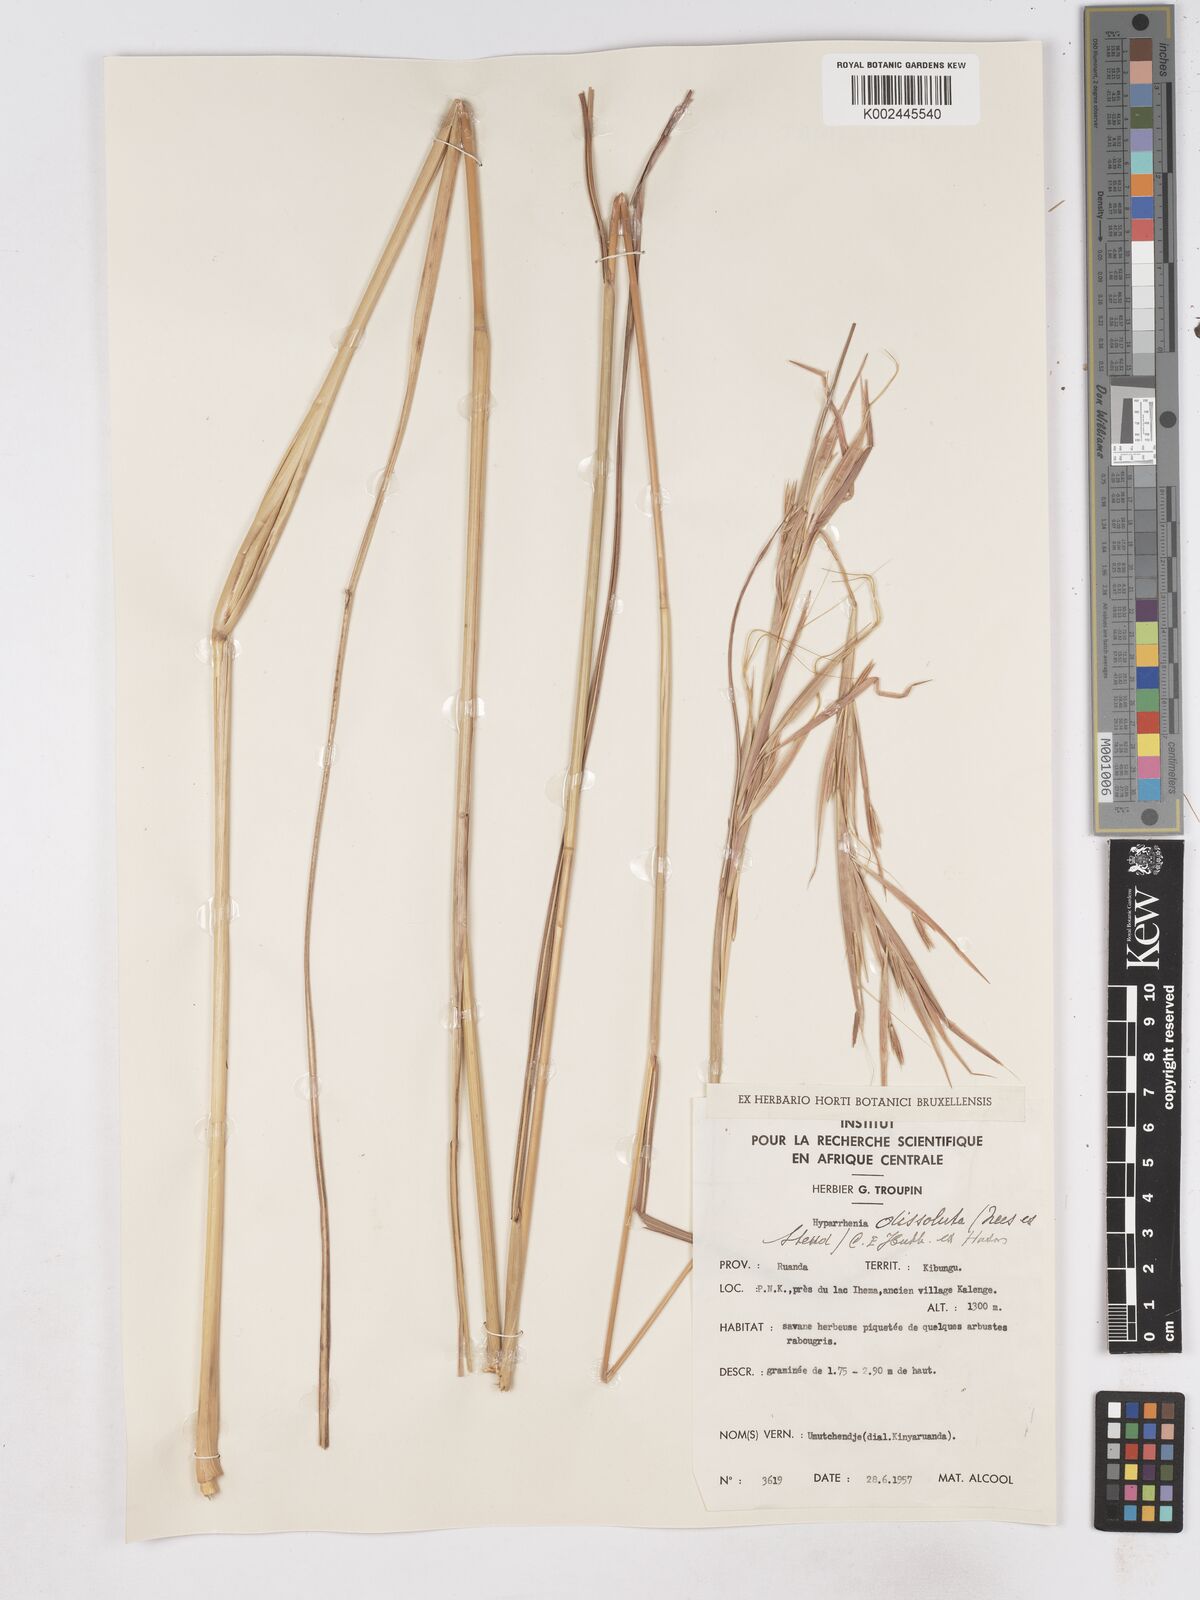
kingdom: Plantae
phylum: Tracheophyta
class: Liliopsida
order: Poales
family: Poaceae
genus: Hyperthelia
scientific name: Hyperthelia dissoluta
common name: Yellow thatching grass
